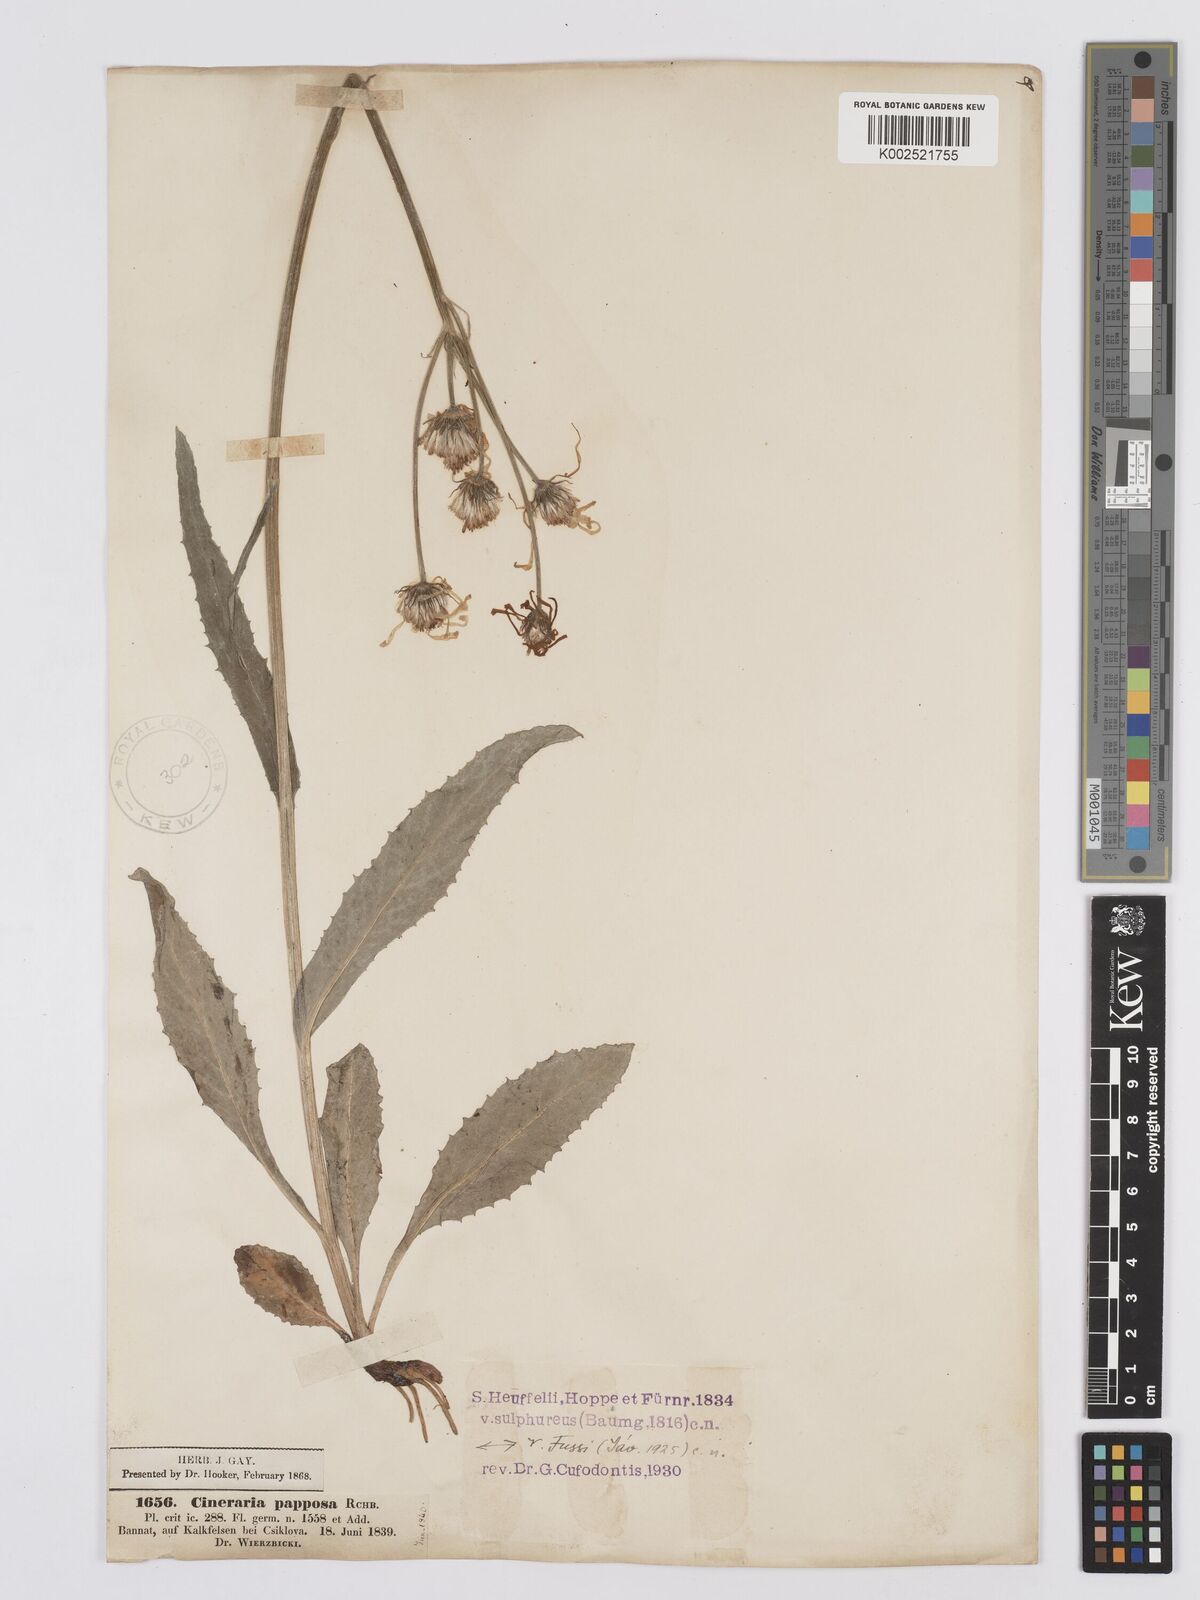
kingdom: Plantae
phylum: Tracheophyta
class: Magnoliopsida
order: Asterales
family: Asteraceae
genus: Tephroseris
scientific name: Tephroseris papposa
